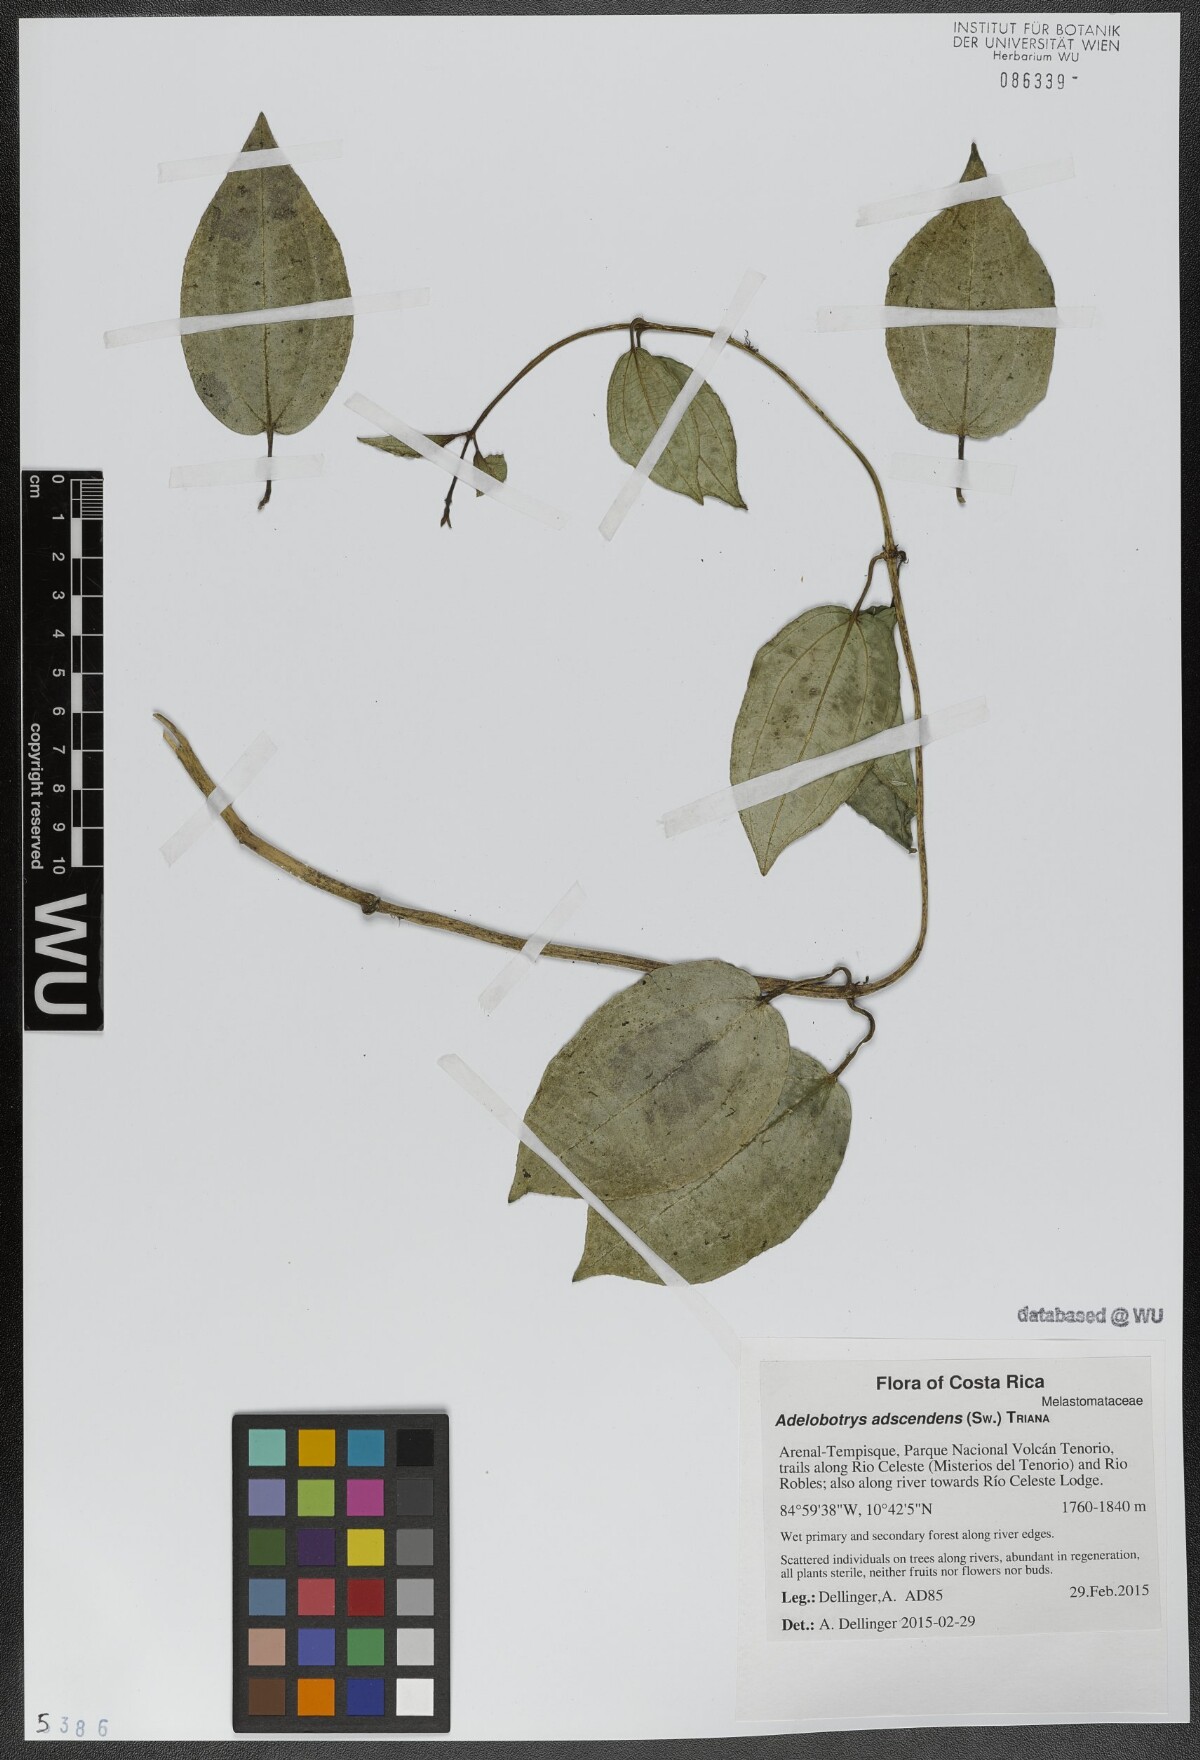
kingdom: Plantae
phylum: Tracheophyta
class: Magnoliopsida
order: Myrtales
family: Melastomataceae
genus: Adelobotrys
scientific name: Adelobotrys adscendens
